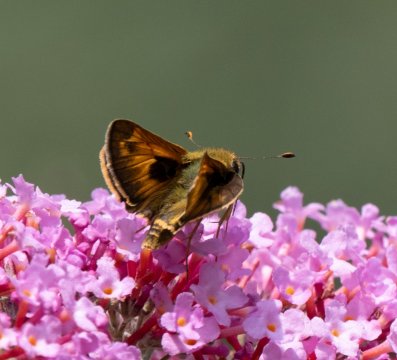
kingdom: Animalia
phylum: Arthropoda
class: Insecta
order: Lepidoptera
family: Hesperiidae
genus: Atalopedes
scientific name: Atalopedes campestris
